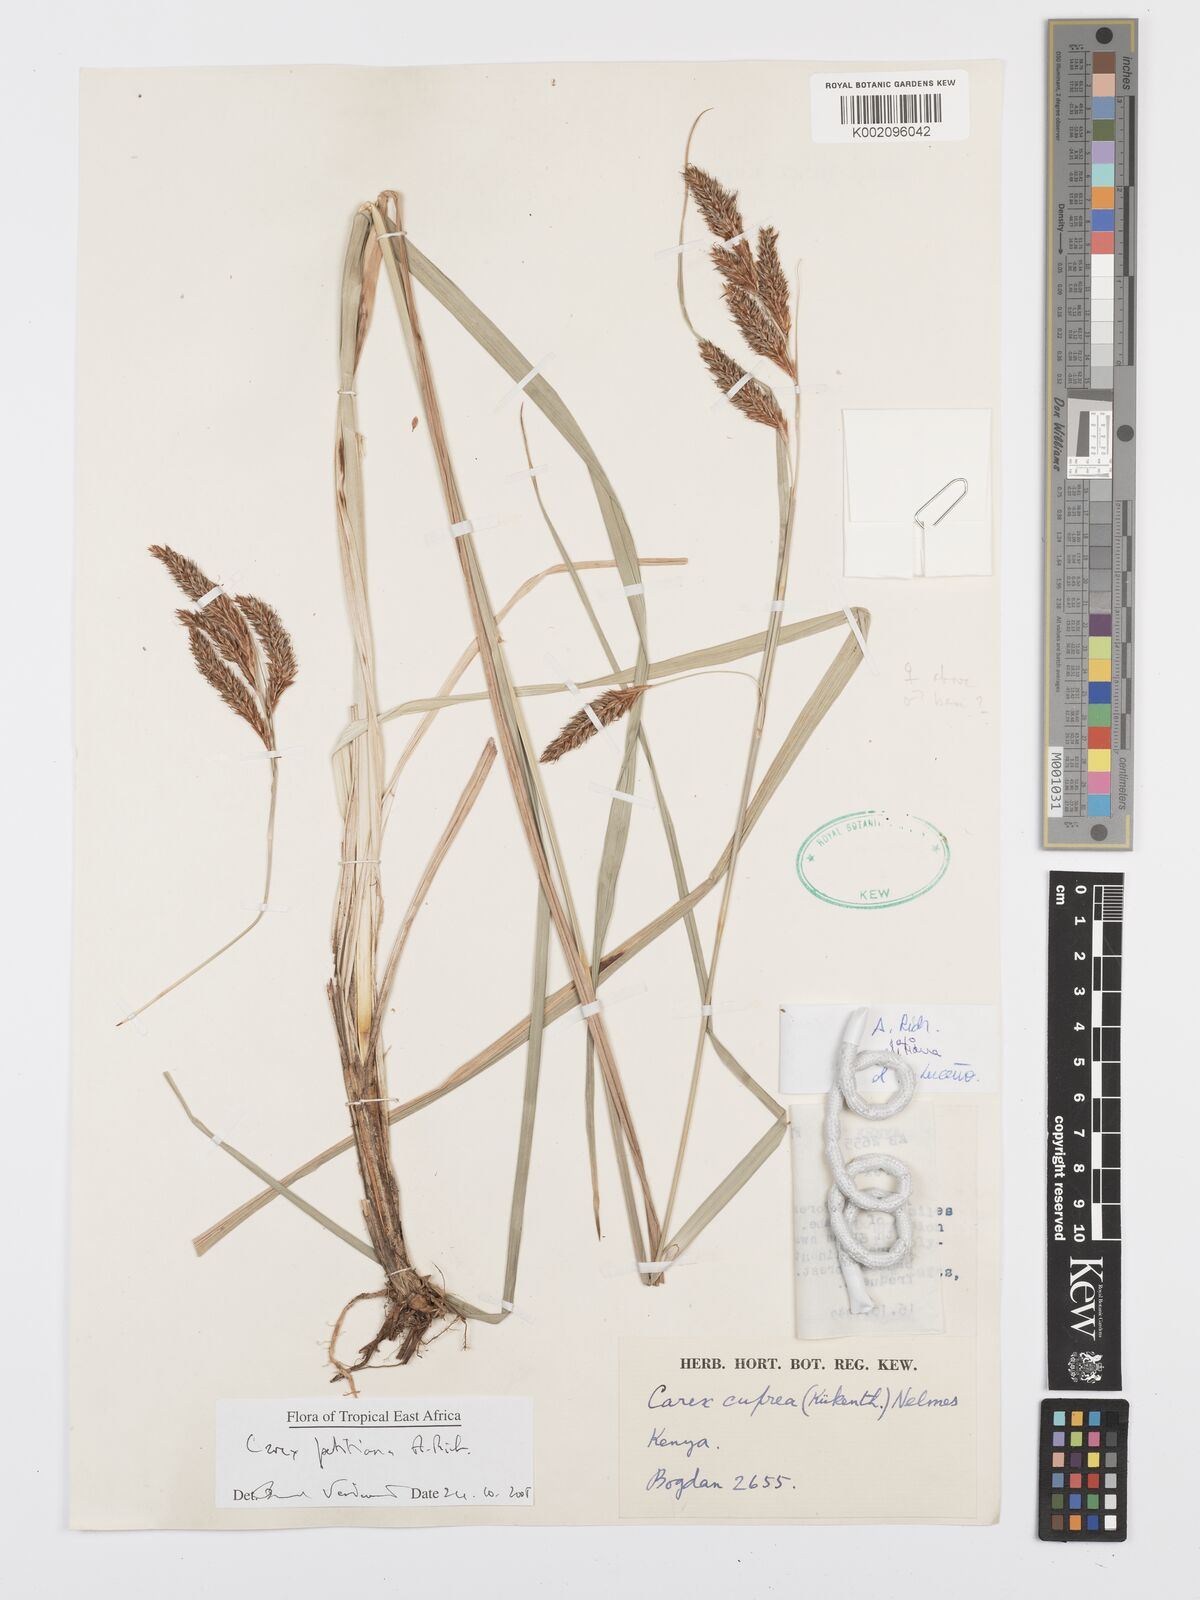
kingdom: Plantae
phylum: Tracheophyta
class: Liliopsida
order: Poales
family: Cyperaceae
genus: Carex
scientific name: Carex petitiana
